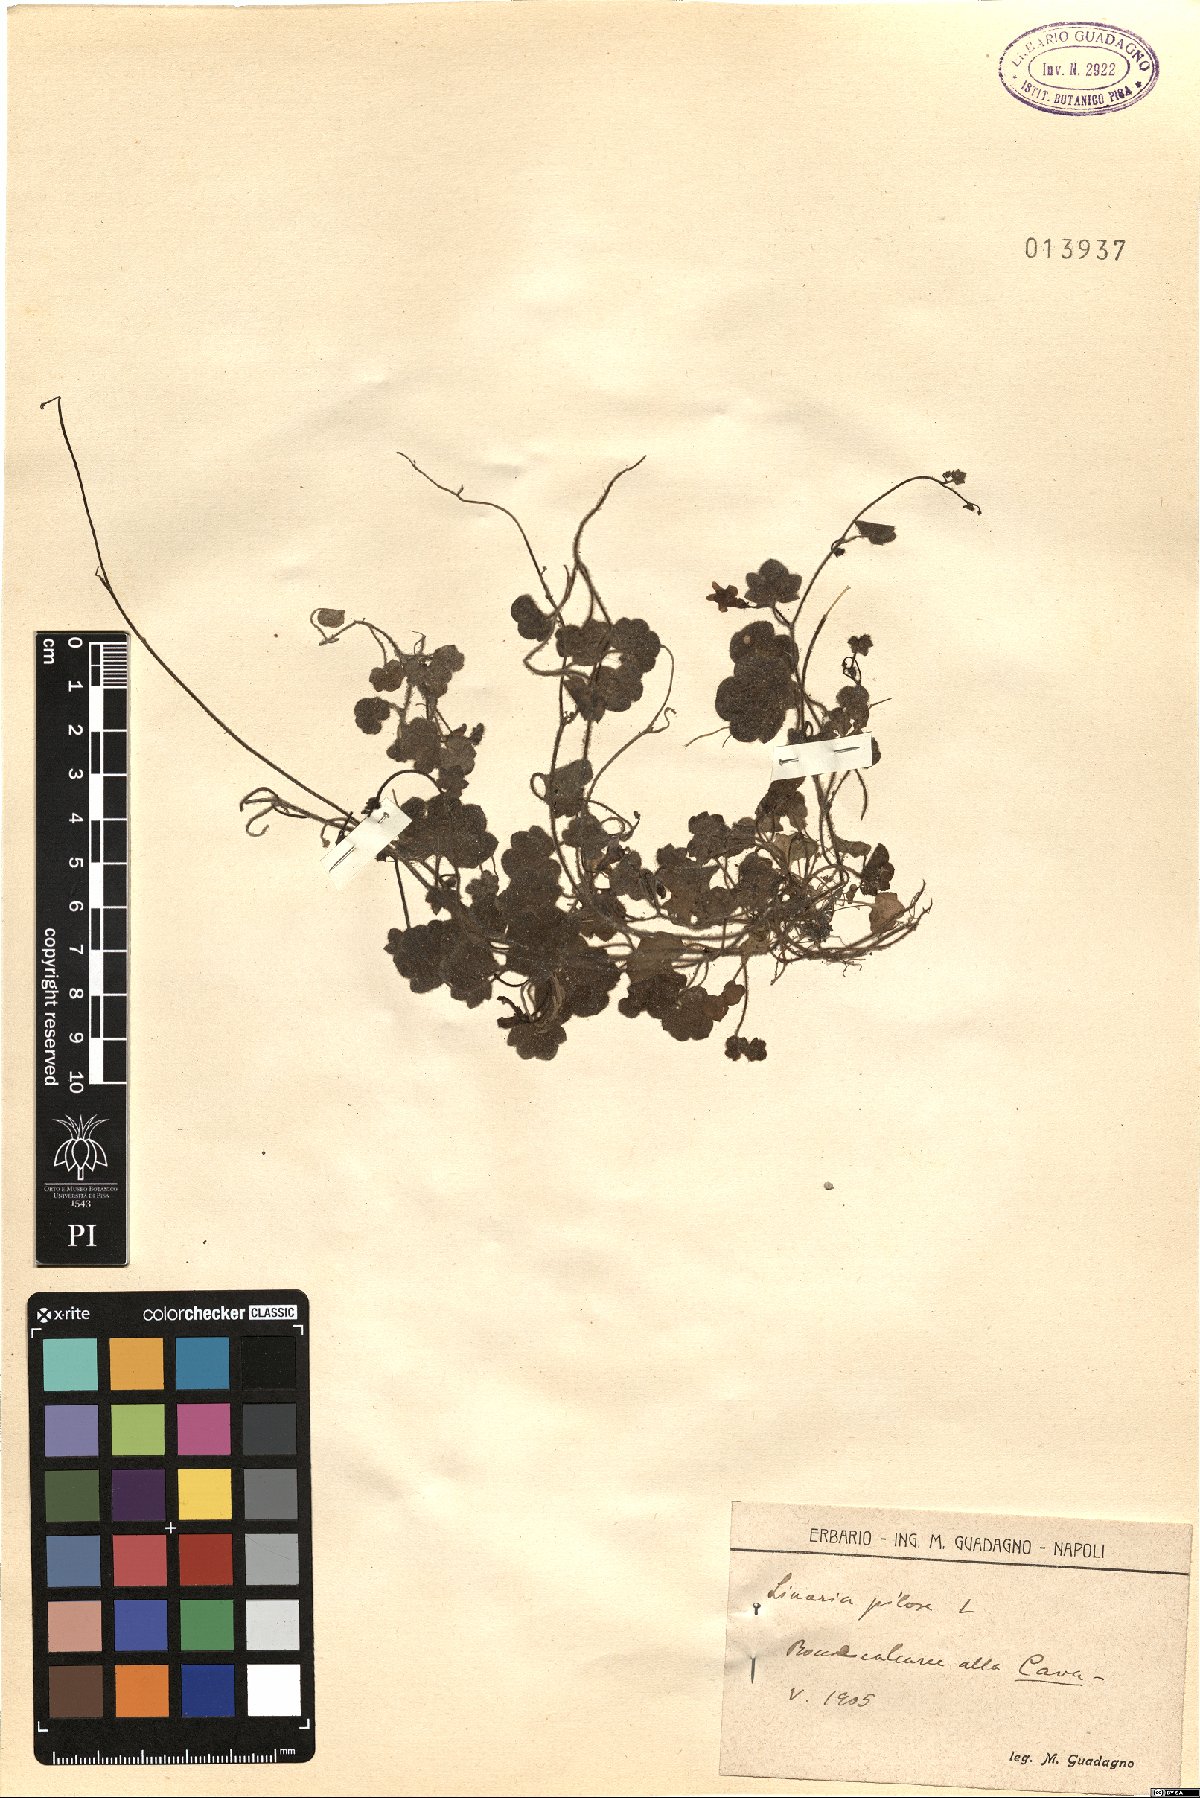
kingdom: Plantae
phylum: Tracheophyta
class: Magnoliopsida
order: Lamiales
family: Plantaginaceae
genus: Sibthorpia
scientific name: Sibthorpia europaea
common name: Cornish moneywort
